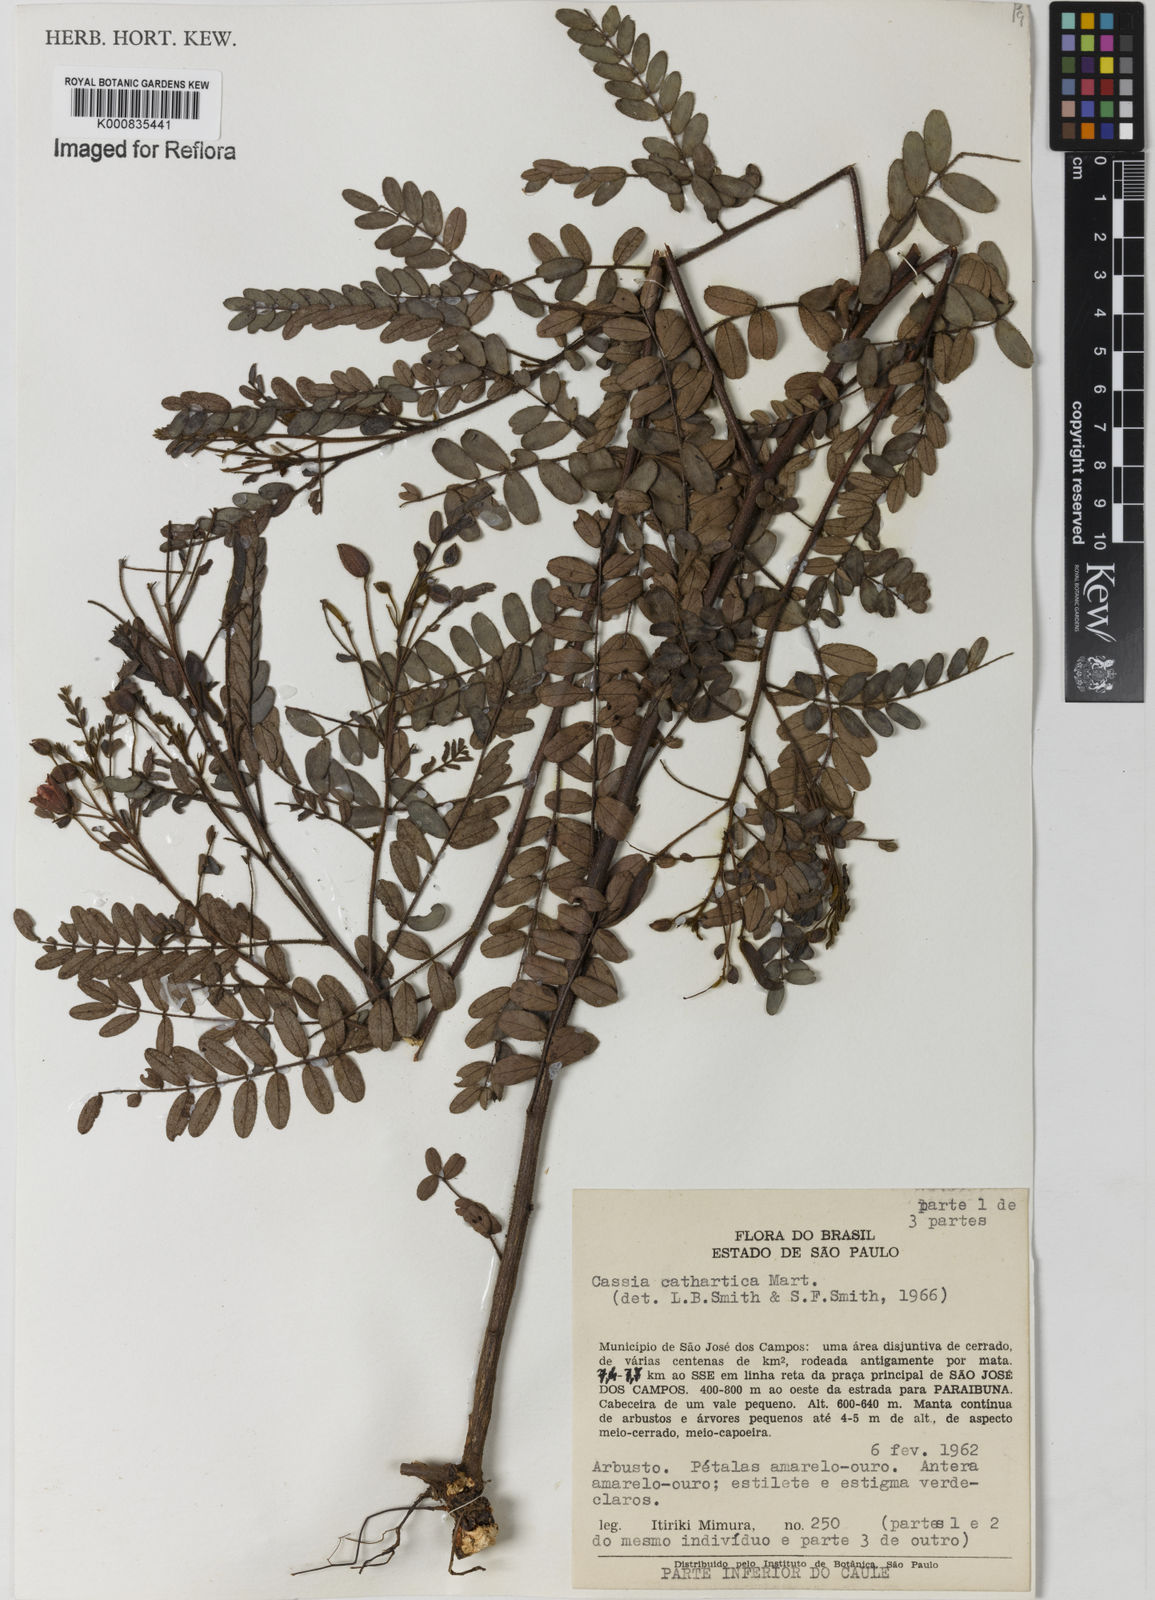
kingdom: Plantae
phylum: Tracheophyta
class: Magnoliopsida
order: Fabales
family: Fabaceae
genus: Chamaecrista
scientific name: Chamaecrista cathartica
